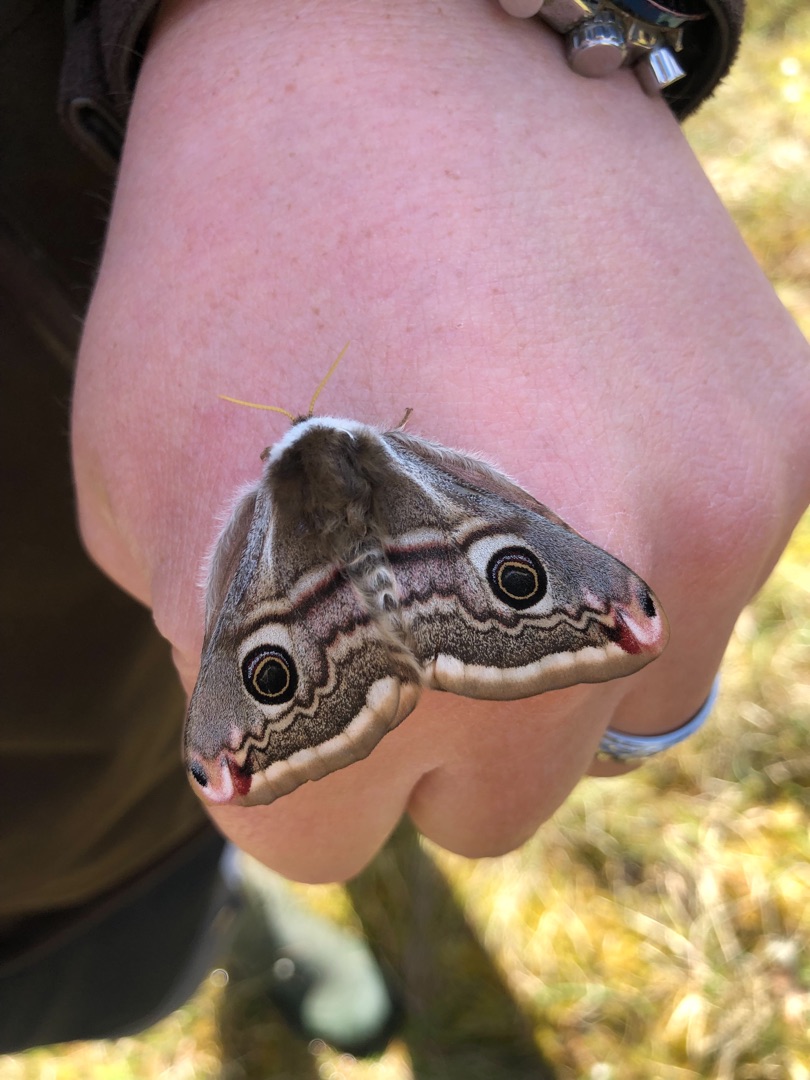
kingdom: Animalia
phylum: Arthropoda
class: Insecta
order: Lepidoptera
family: Saturniidae
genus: Saturnia
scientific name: Saturnia pavonia
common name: Lille natpåfugleøje
